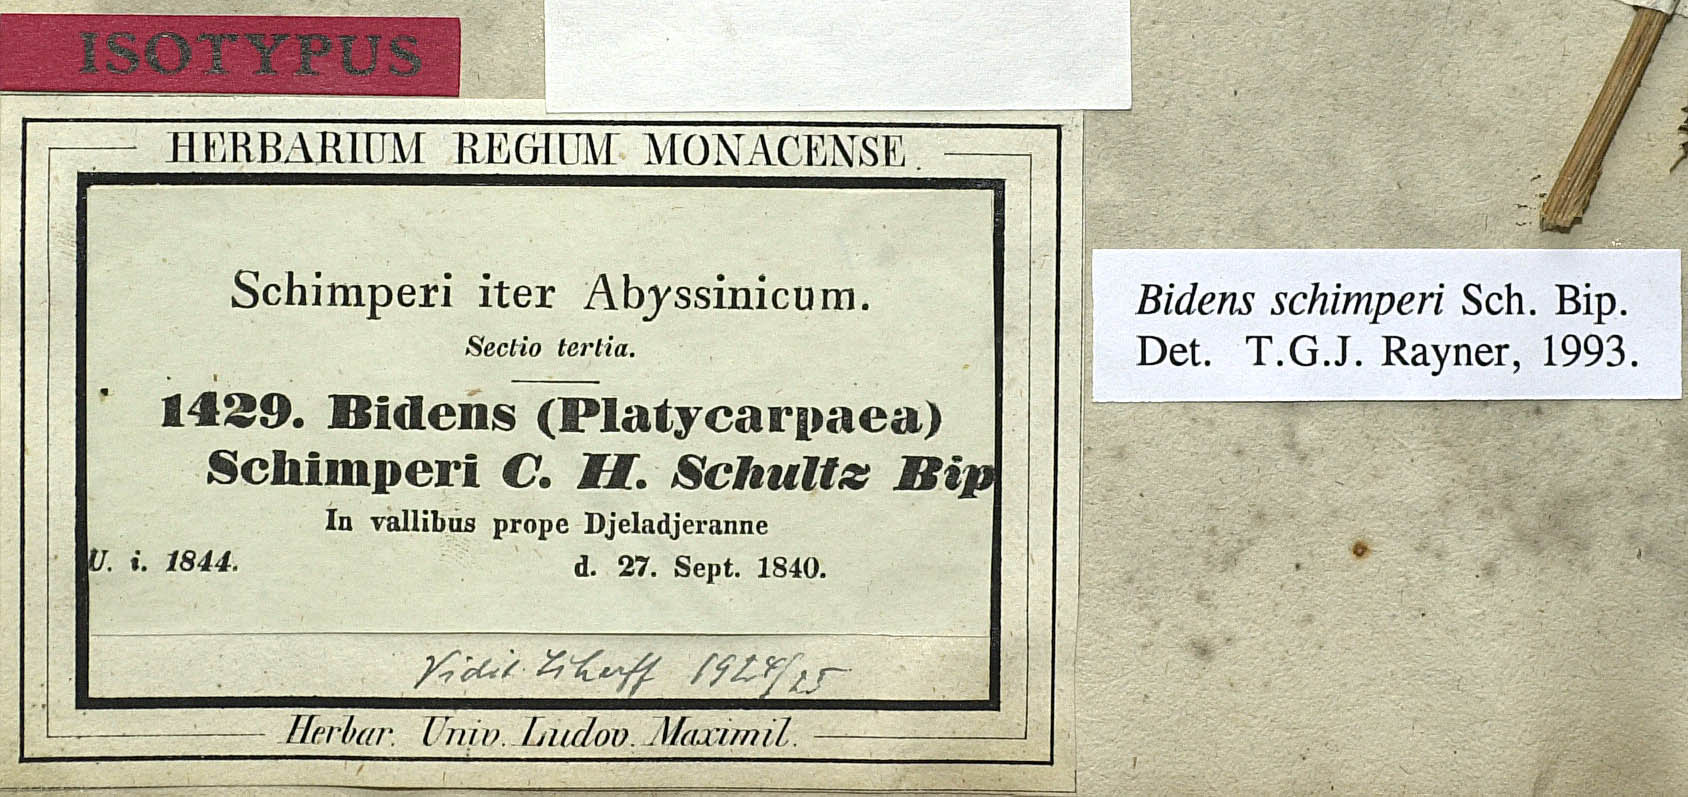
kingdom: Plantae
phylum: Tracheophyta
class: Magnoliopsida
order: Asterales
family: Asteraceae
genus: Bidens
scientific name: Bidens schimperi
